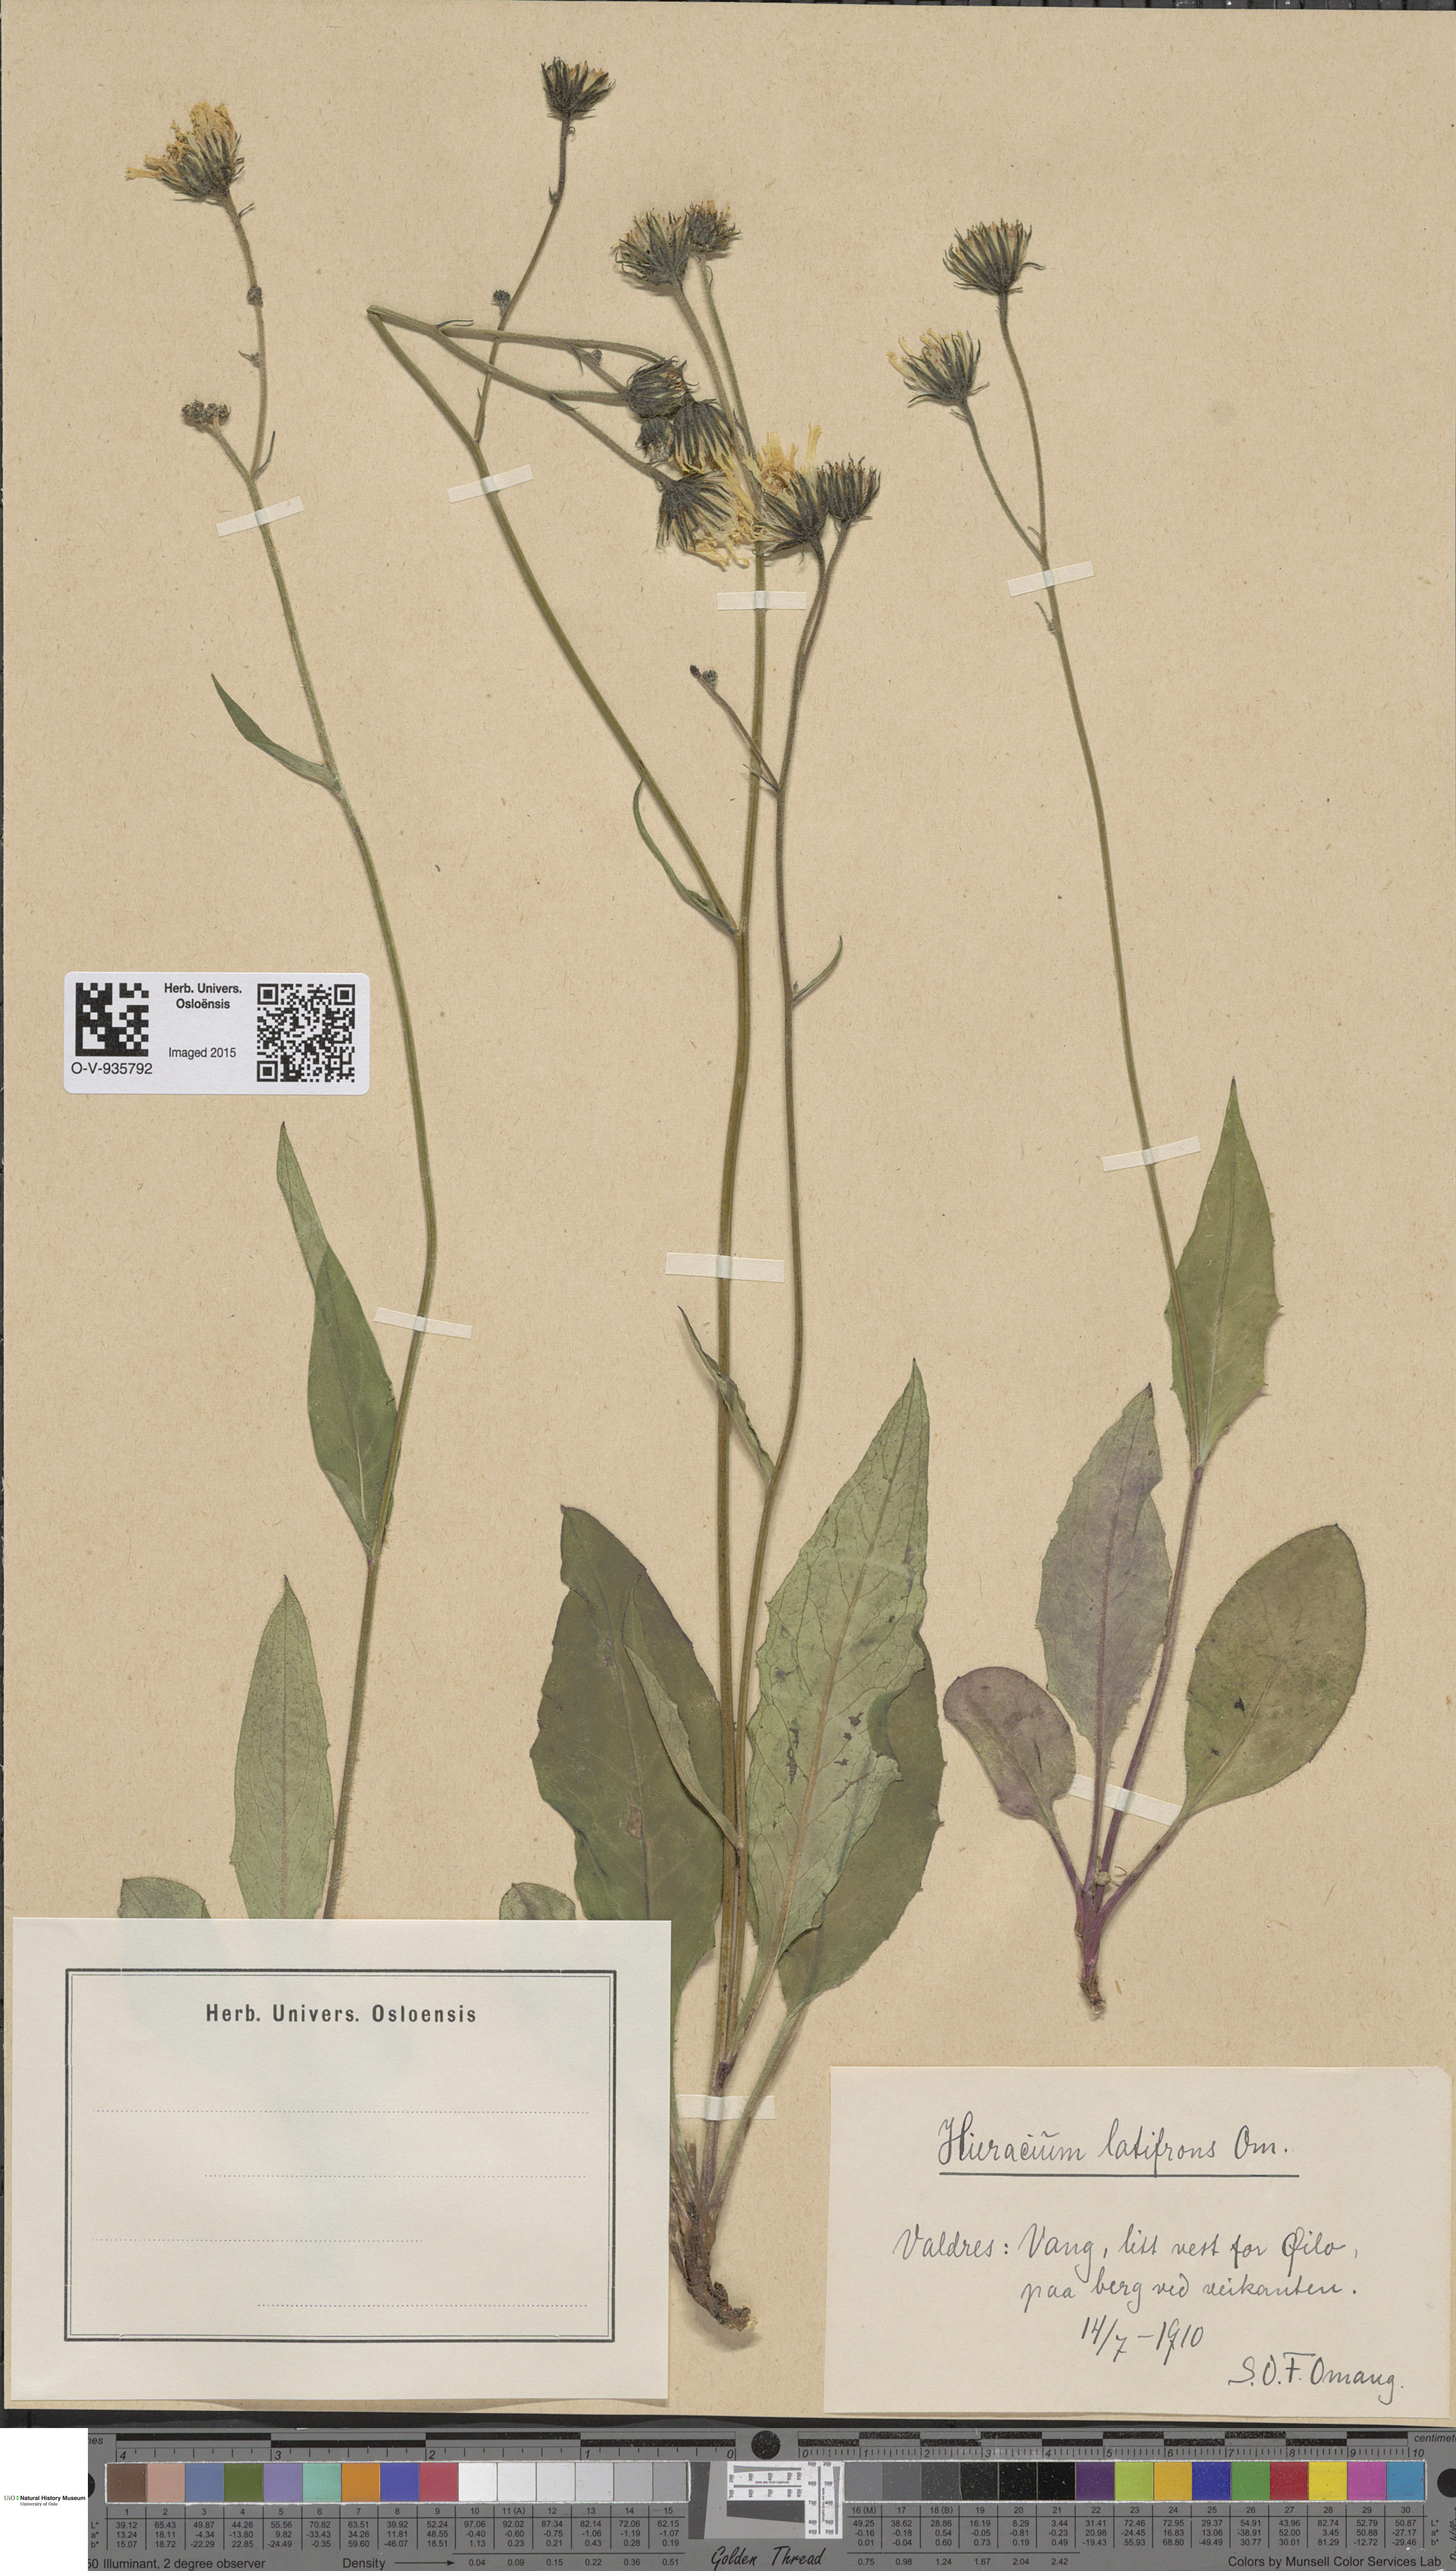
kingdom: Plantae
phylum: Tracheophyta
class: Magnoliopsida
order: Asterales
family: Asteraceae
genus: Hieracium
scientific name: Hieracium saxifragum
